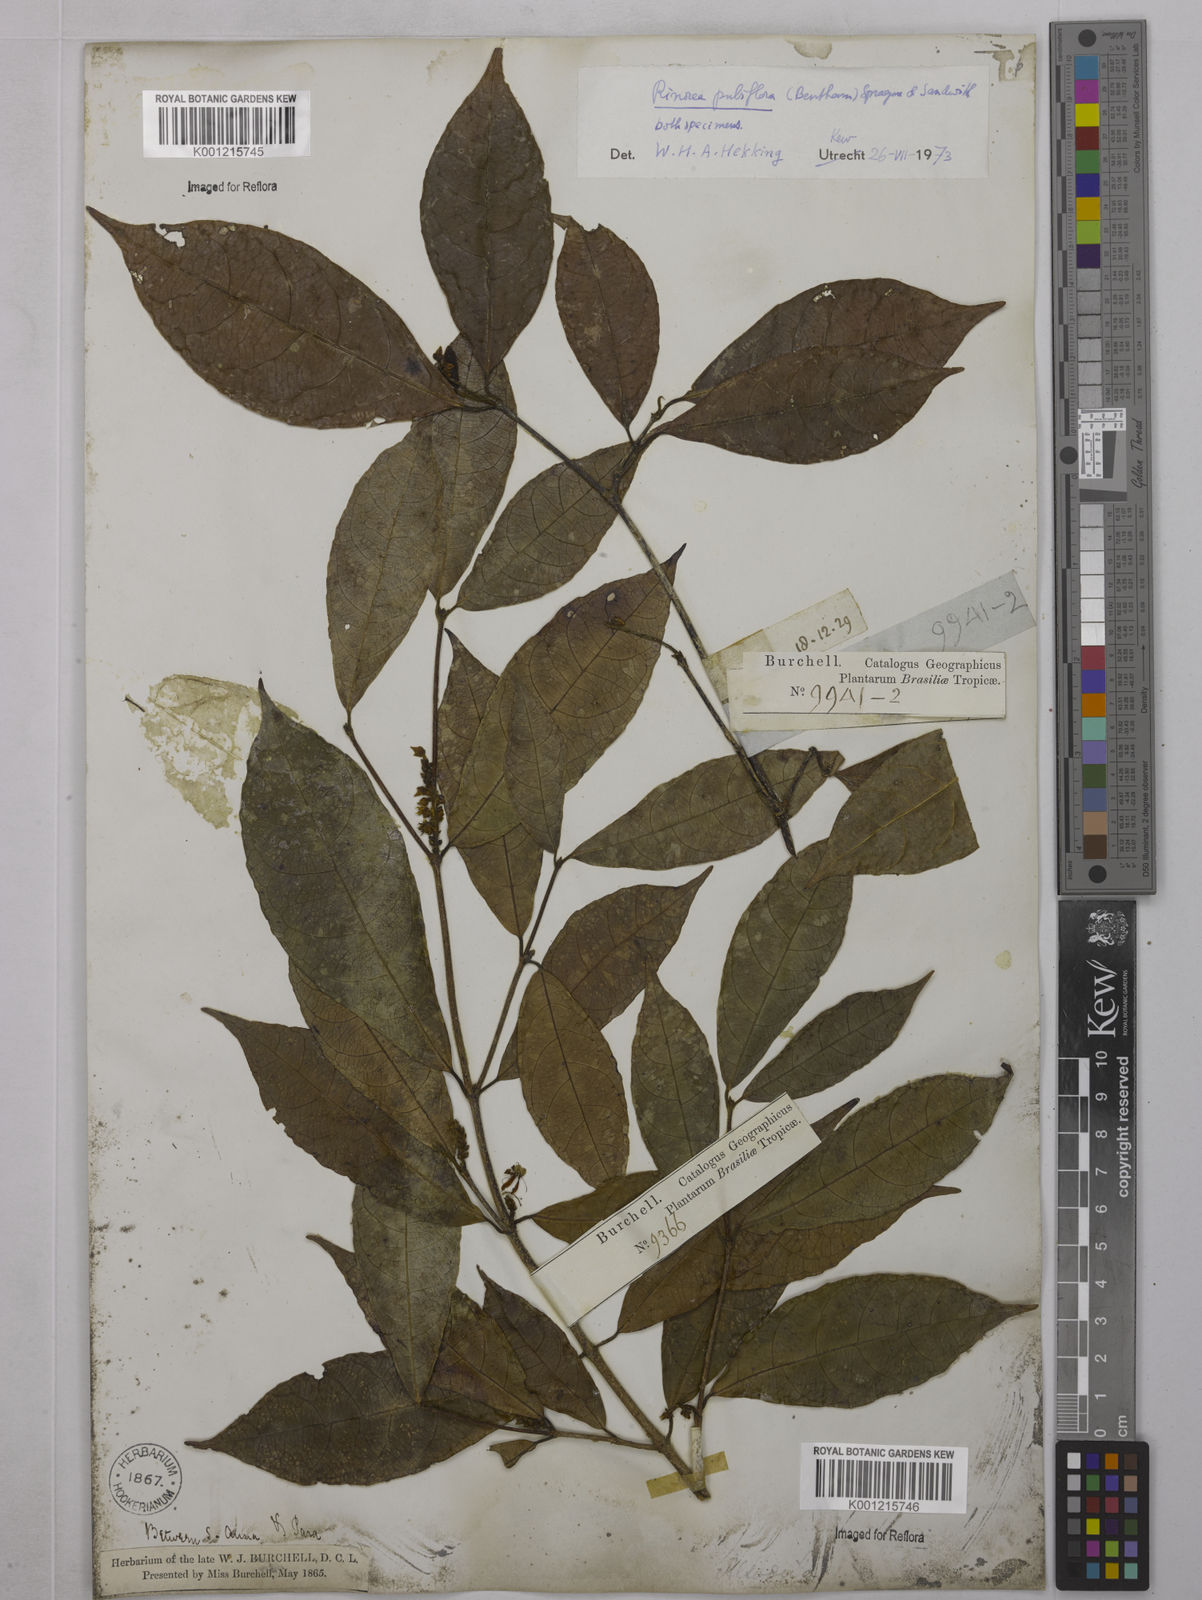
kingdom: Plantae
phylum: Tracheophyta
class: Magnoliopsida
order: Malpighiales
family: Violaceae
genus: Rinorea
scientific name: Rinorea pubiflora
